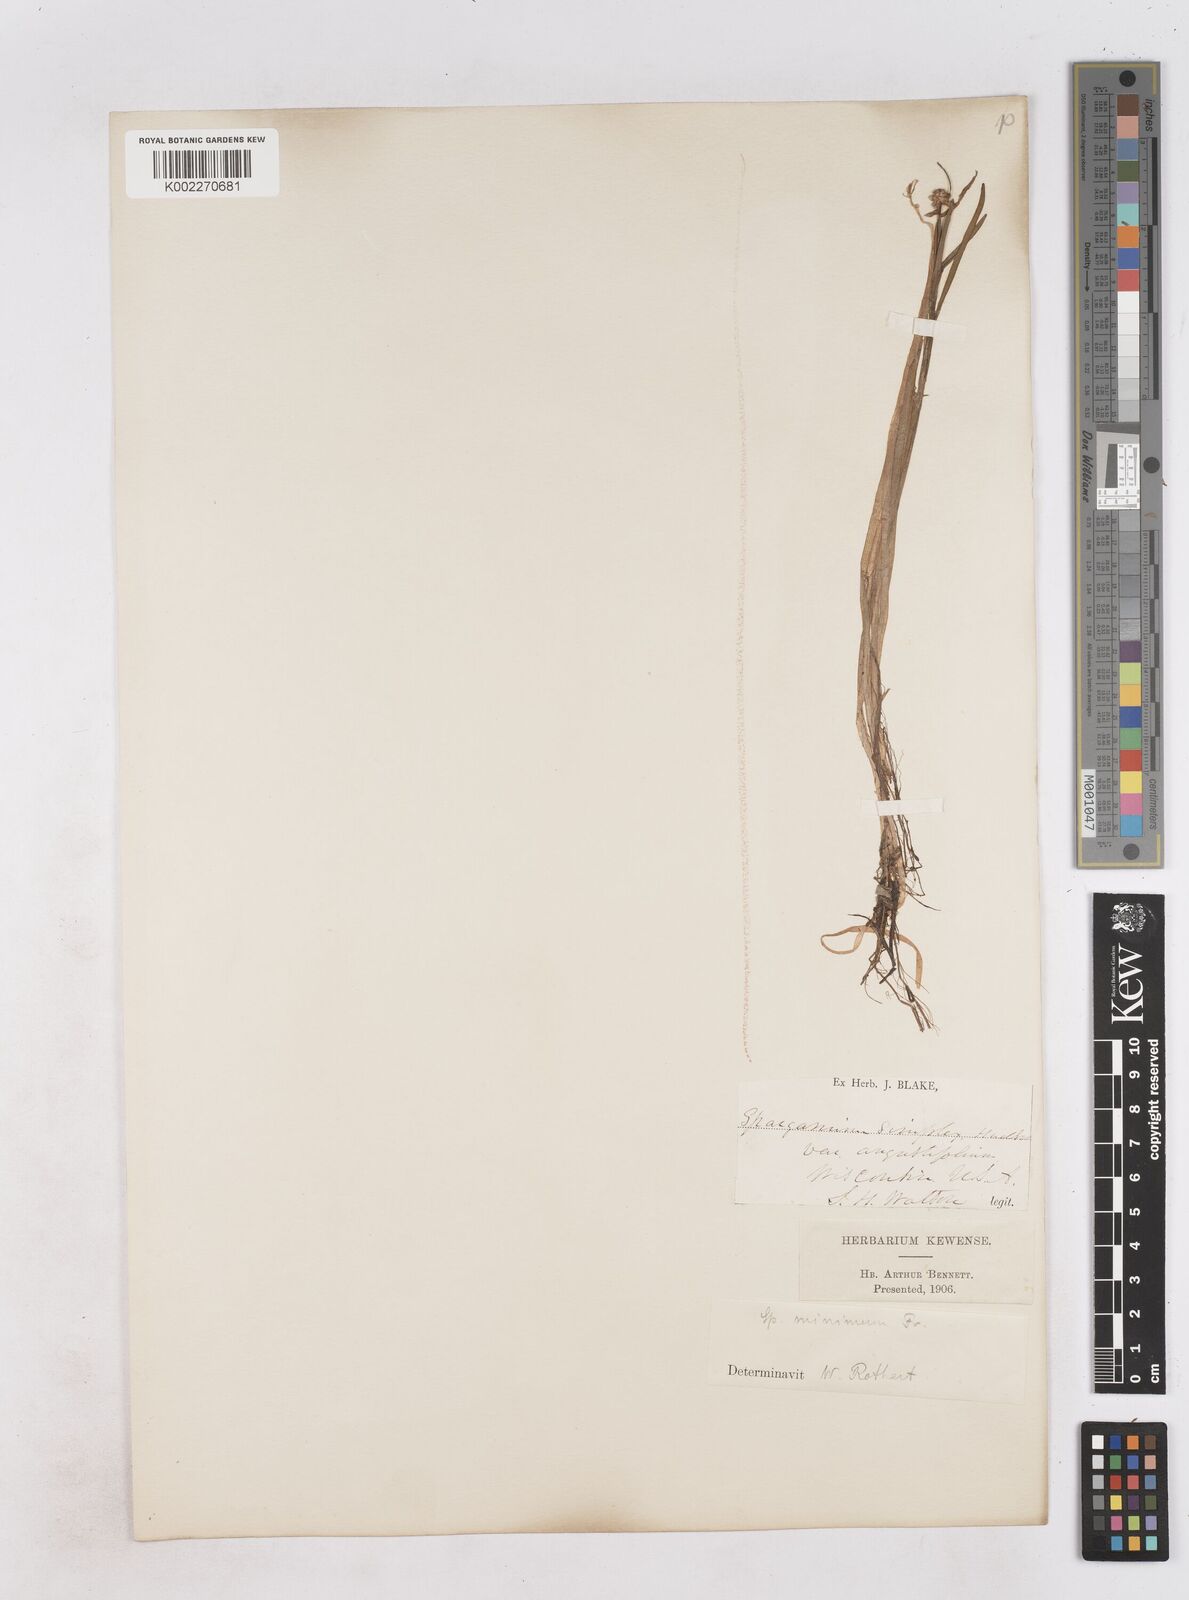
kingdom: Plantae
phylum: Tracheophyta
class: Liliopsida
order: Poales
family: Typhaceae
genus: Sparganium
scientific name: Sparganium natans
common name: Least bur-reed
